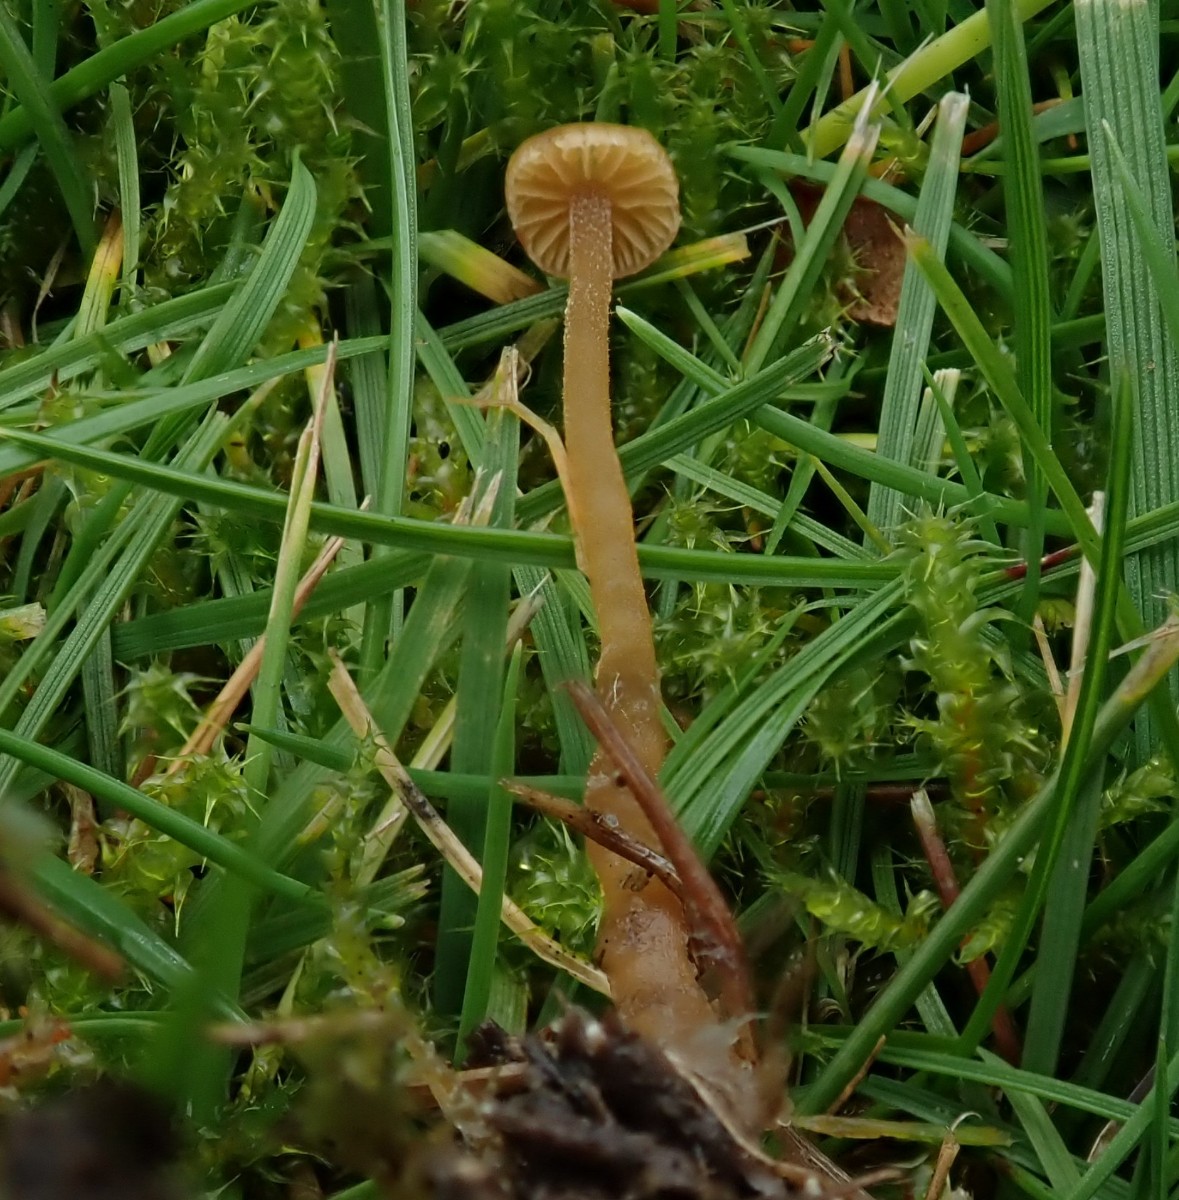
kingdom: Fungi
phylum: Basidiomycota
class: Agaricomycetes
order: Agaricales
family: Hymenogastraceae
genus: Galerina
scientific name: Galerina
